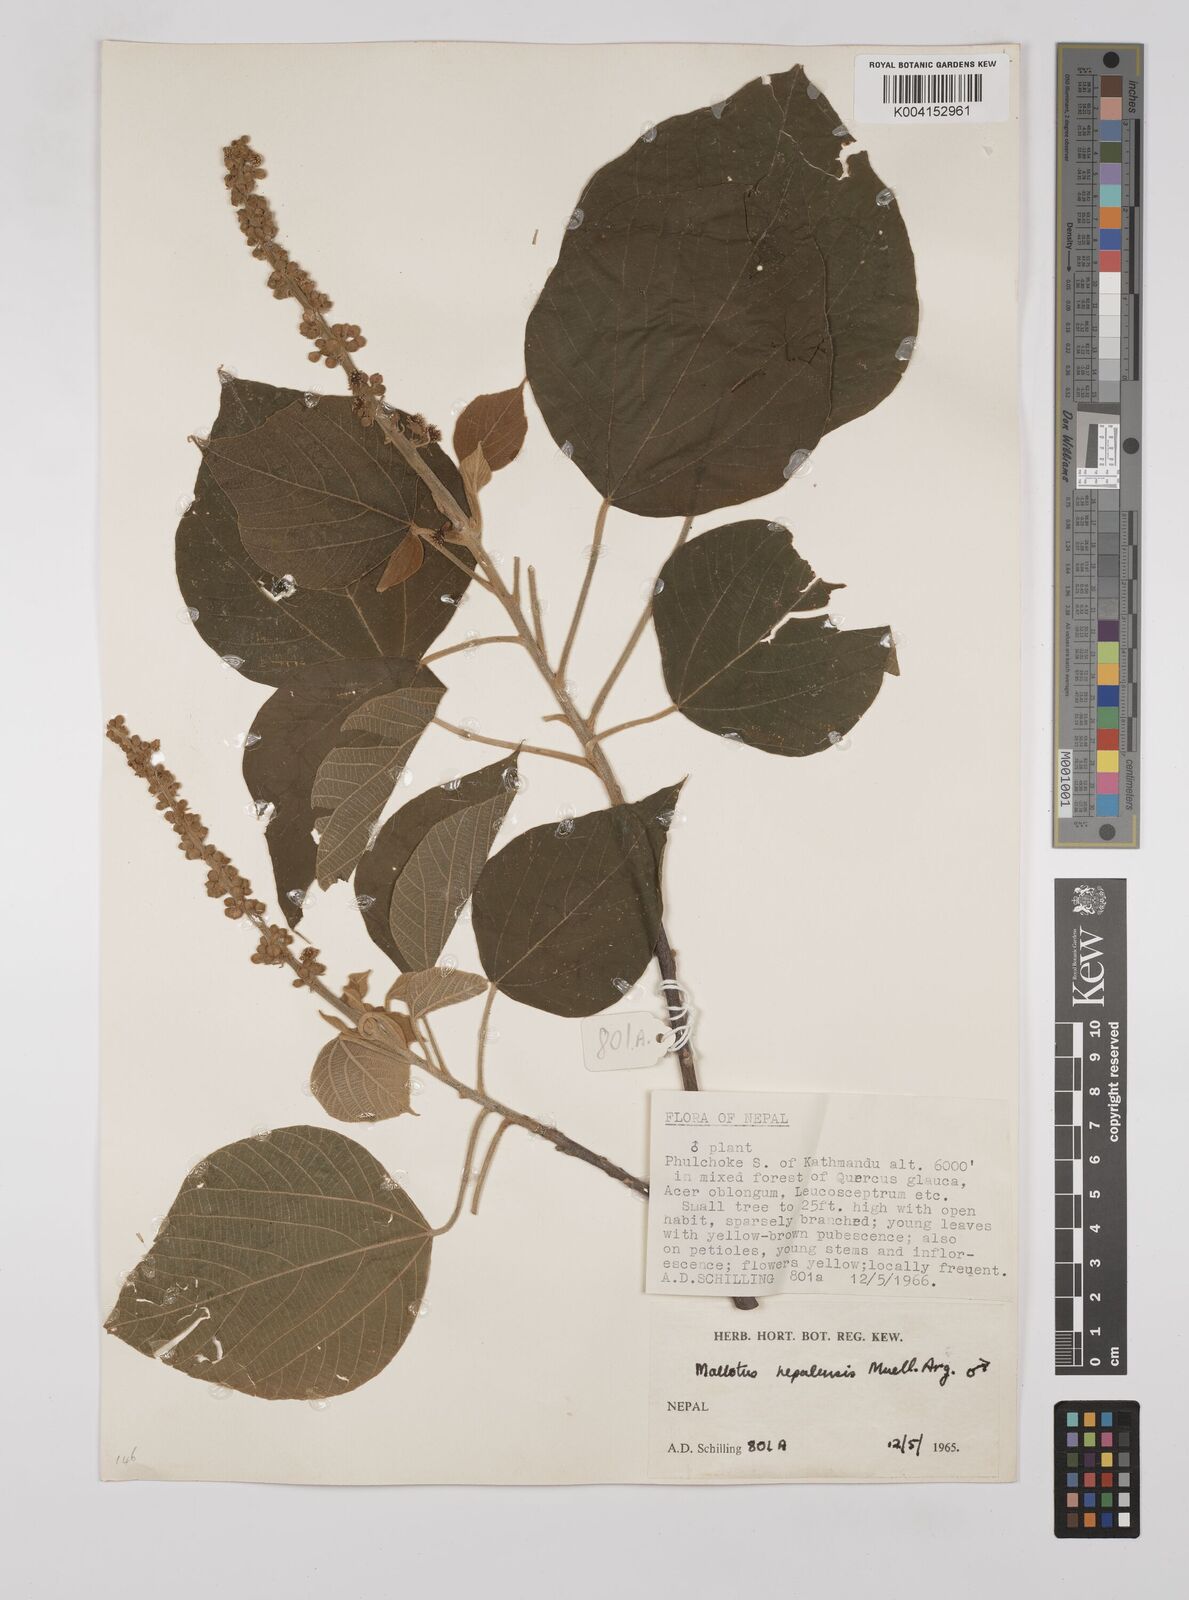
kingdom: Plantae
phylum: Tracheophyta
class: Magnoliopsida
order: Malpighiales
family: Euphorbiaceae
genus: Mallotus
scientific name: Mallotus nepalensis
